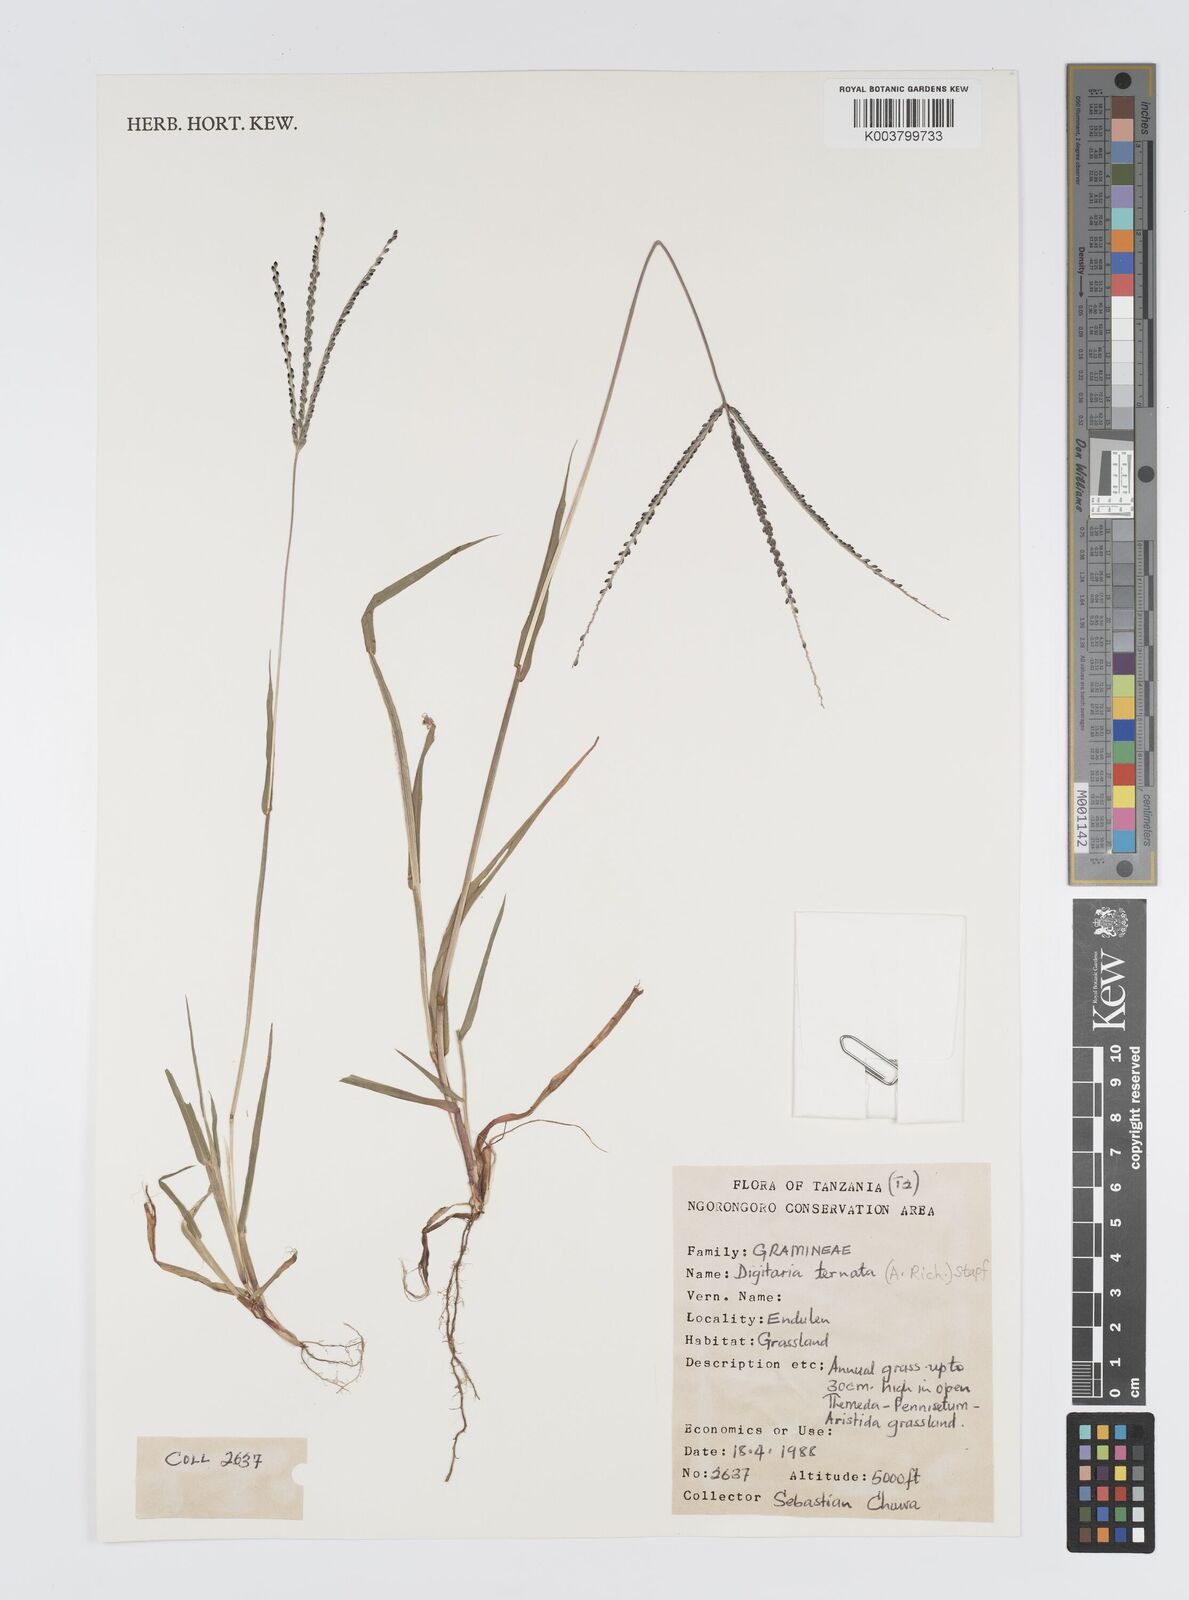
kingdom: Plantae
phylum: Tracheophyta
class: Liliopsida
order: Poales
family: Poaceae
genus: Digitaria
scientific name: Digitaria ternata
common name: Blackseed crabgrass
